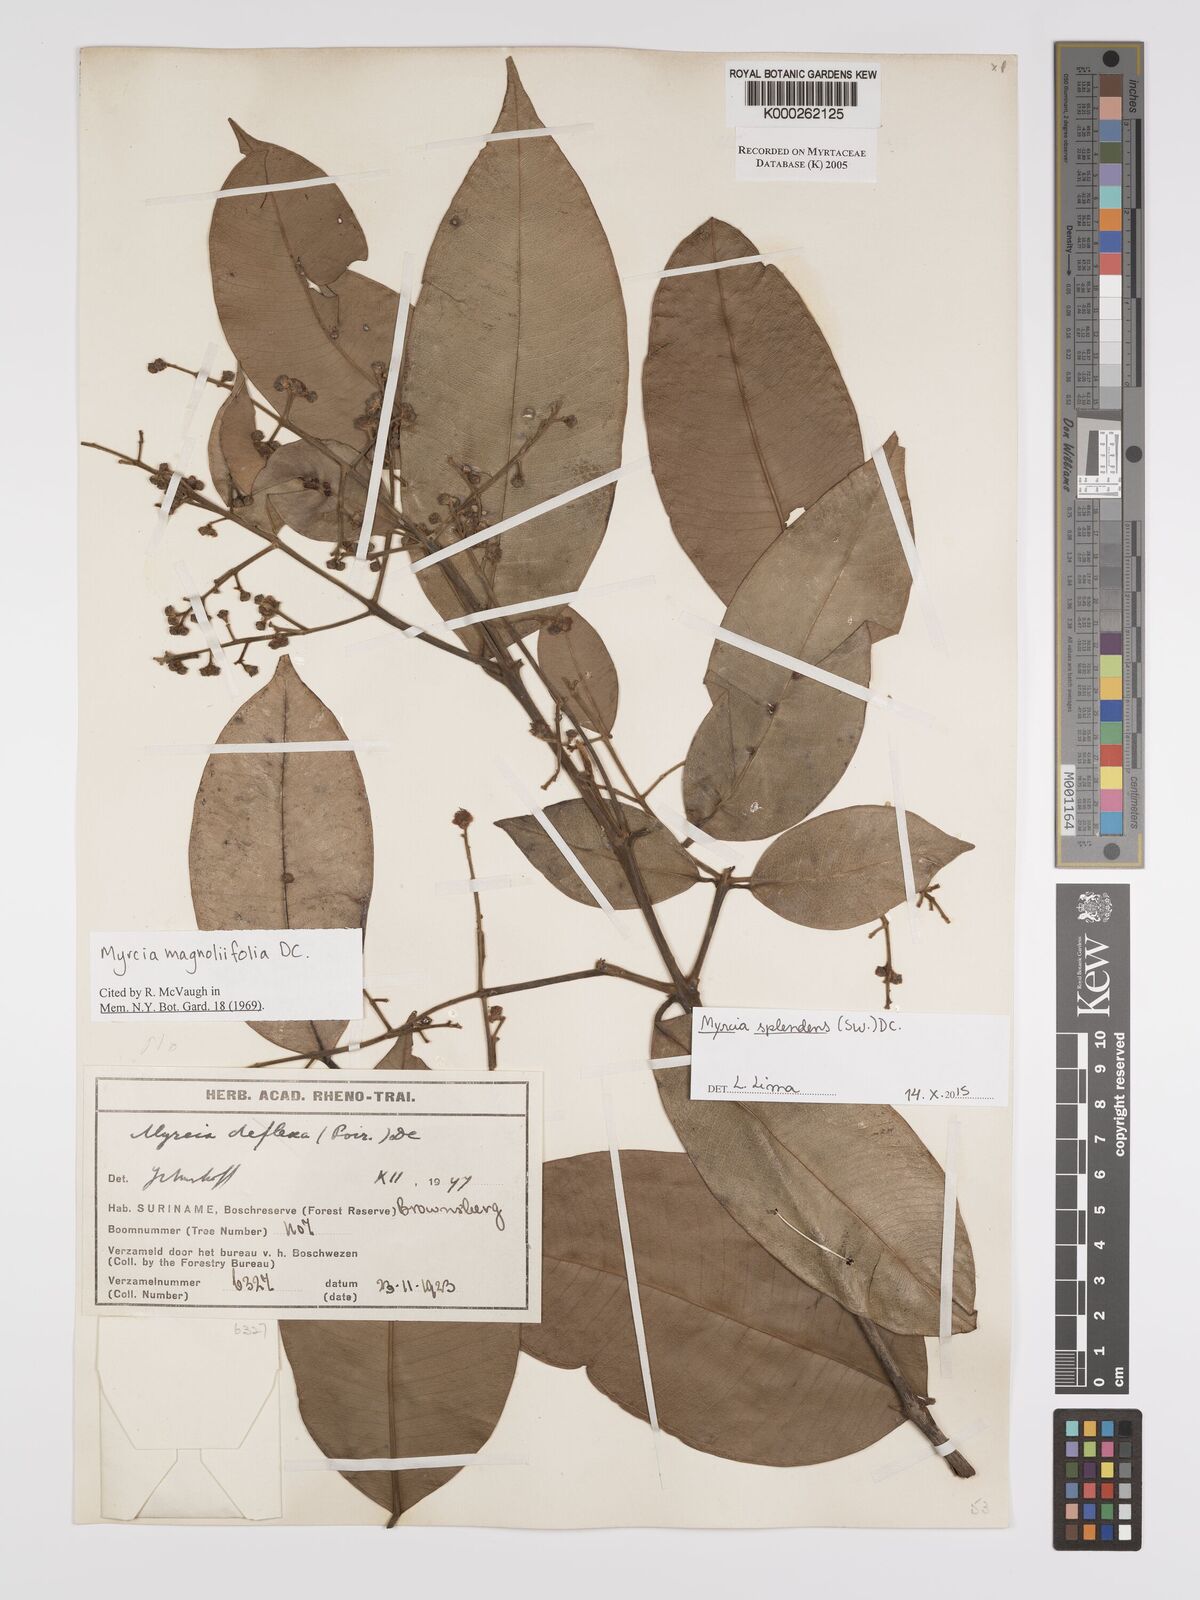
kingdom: Plantae
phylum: Tracheophyta
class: Magnoliopsida
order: Myrtales
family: Myrtaceae
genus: Myrcia
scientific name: Myrcia splendens
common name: Surinam cherry
